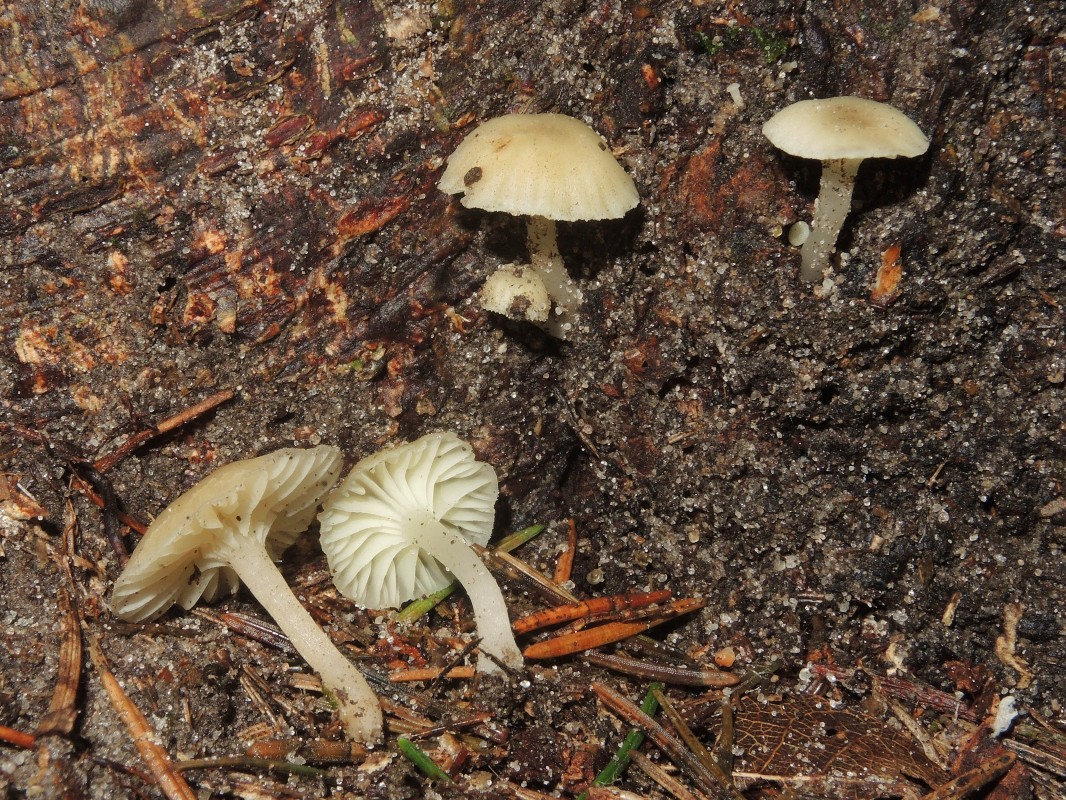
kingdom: Fungi
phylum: Basidiomycota
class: Agaricomycetes
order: Agaricales
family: Hygrophoraceae
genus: Chrysomphalina
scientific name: Chrysomphalina grossula
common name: stød-gyldenblad
